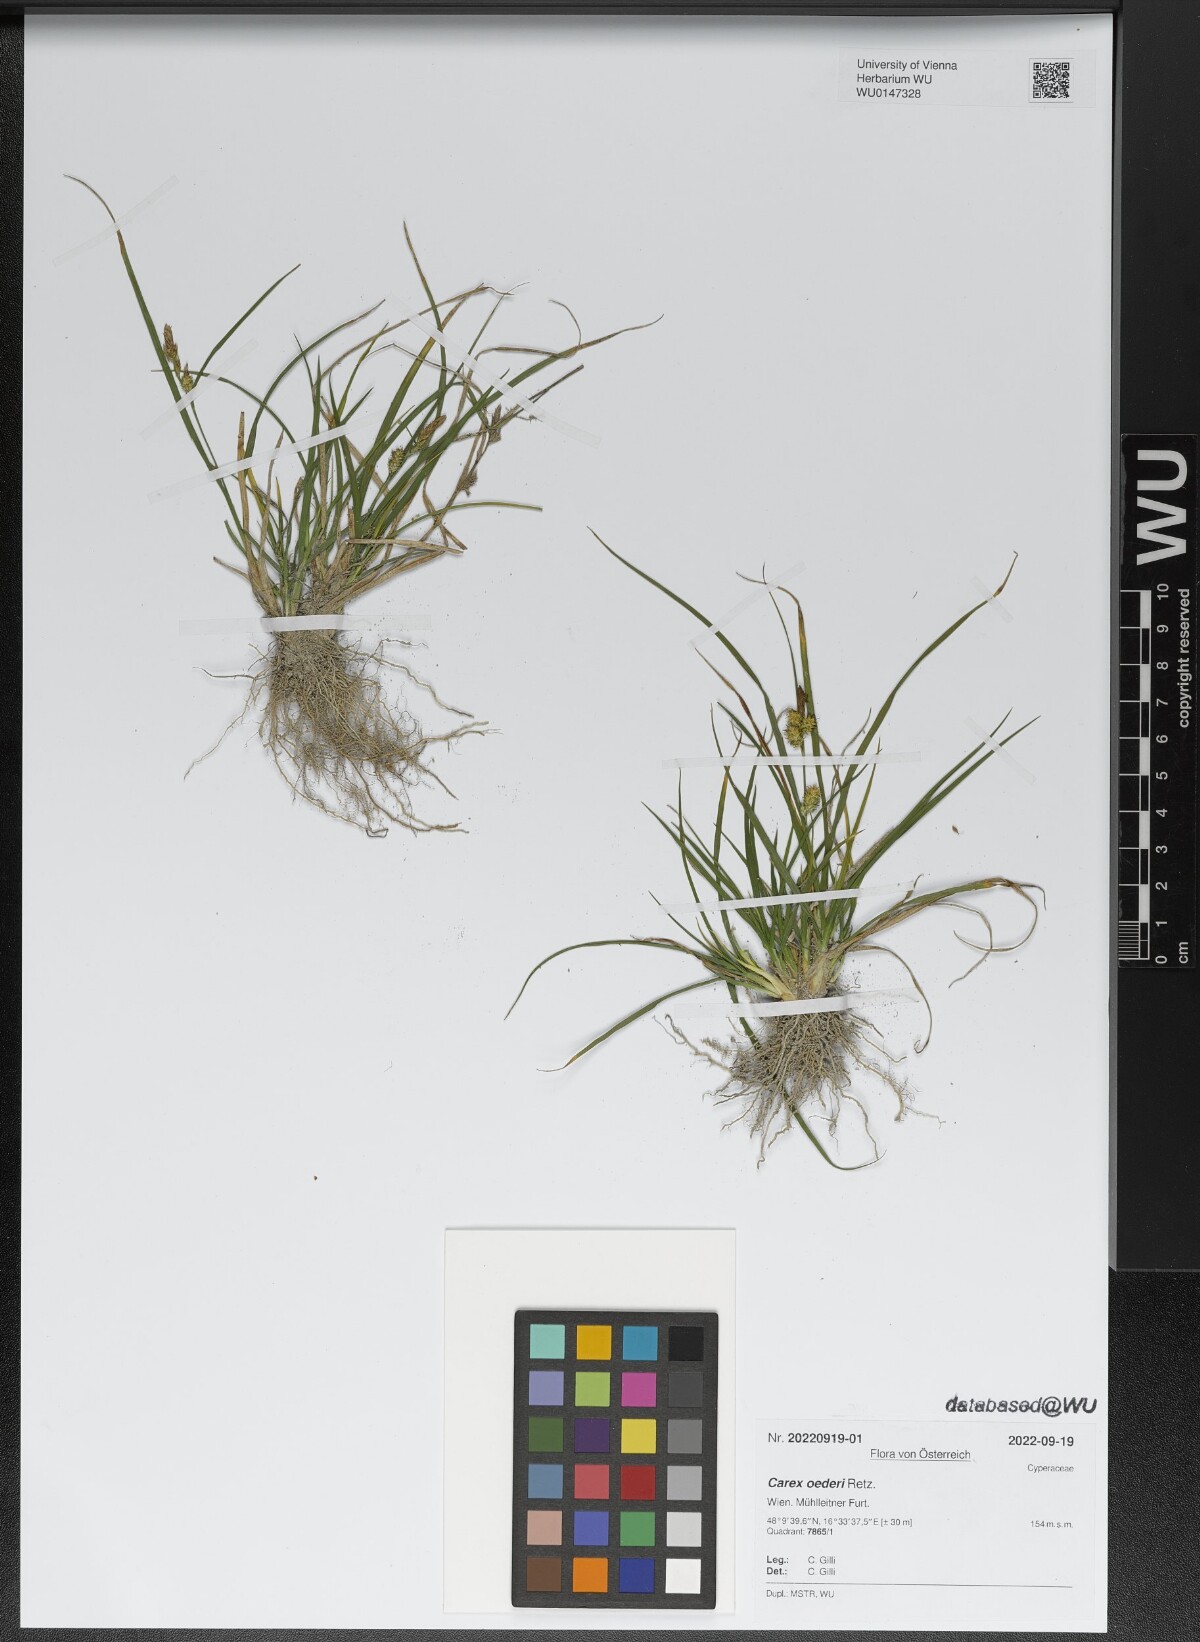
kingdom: Plantae
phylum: Tracheophyta
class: Liliopsida
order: Poales
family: Cyperaceae
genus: Carex
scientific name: Carex oederi
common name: Common & small-fruited yellow-sedge
